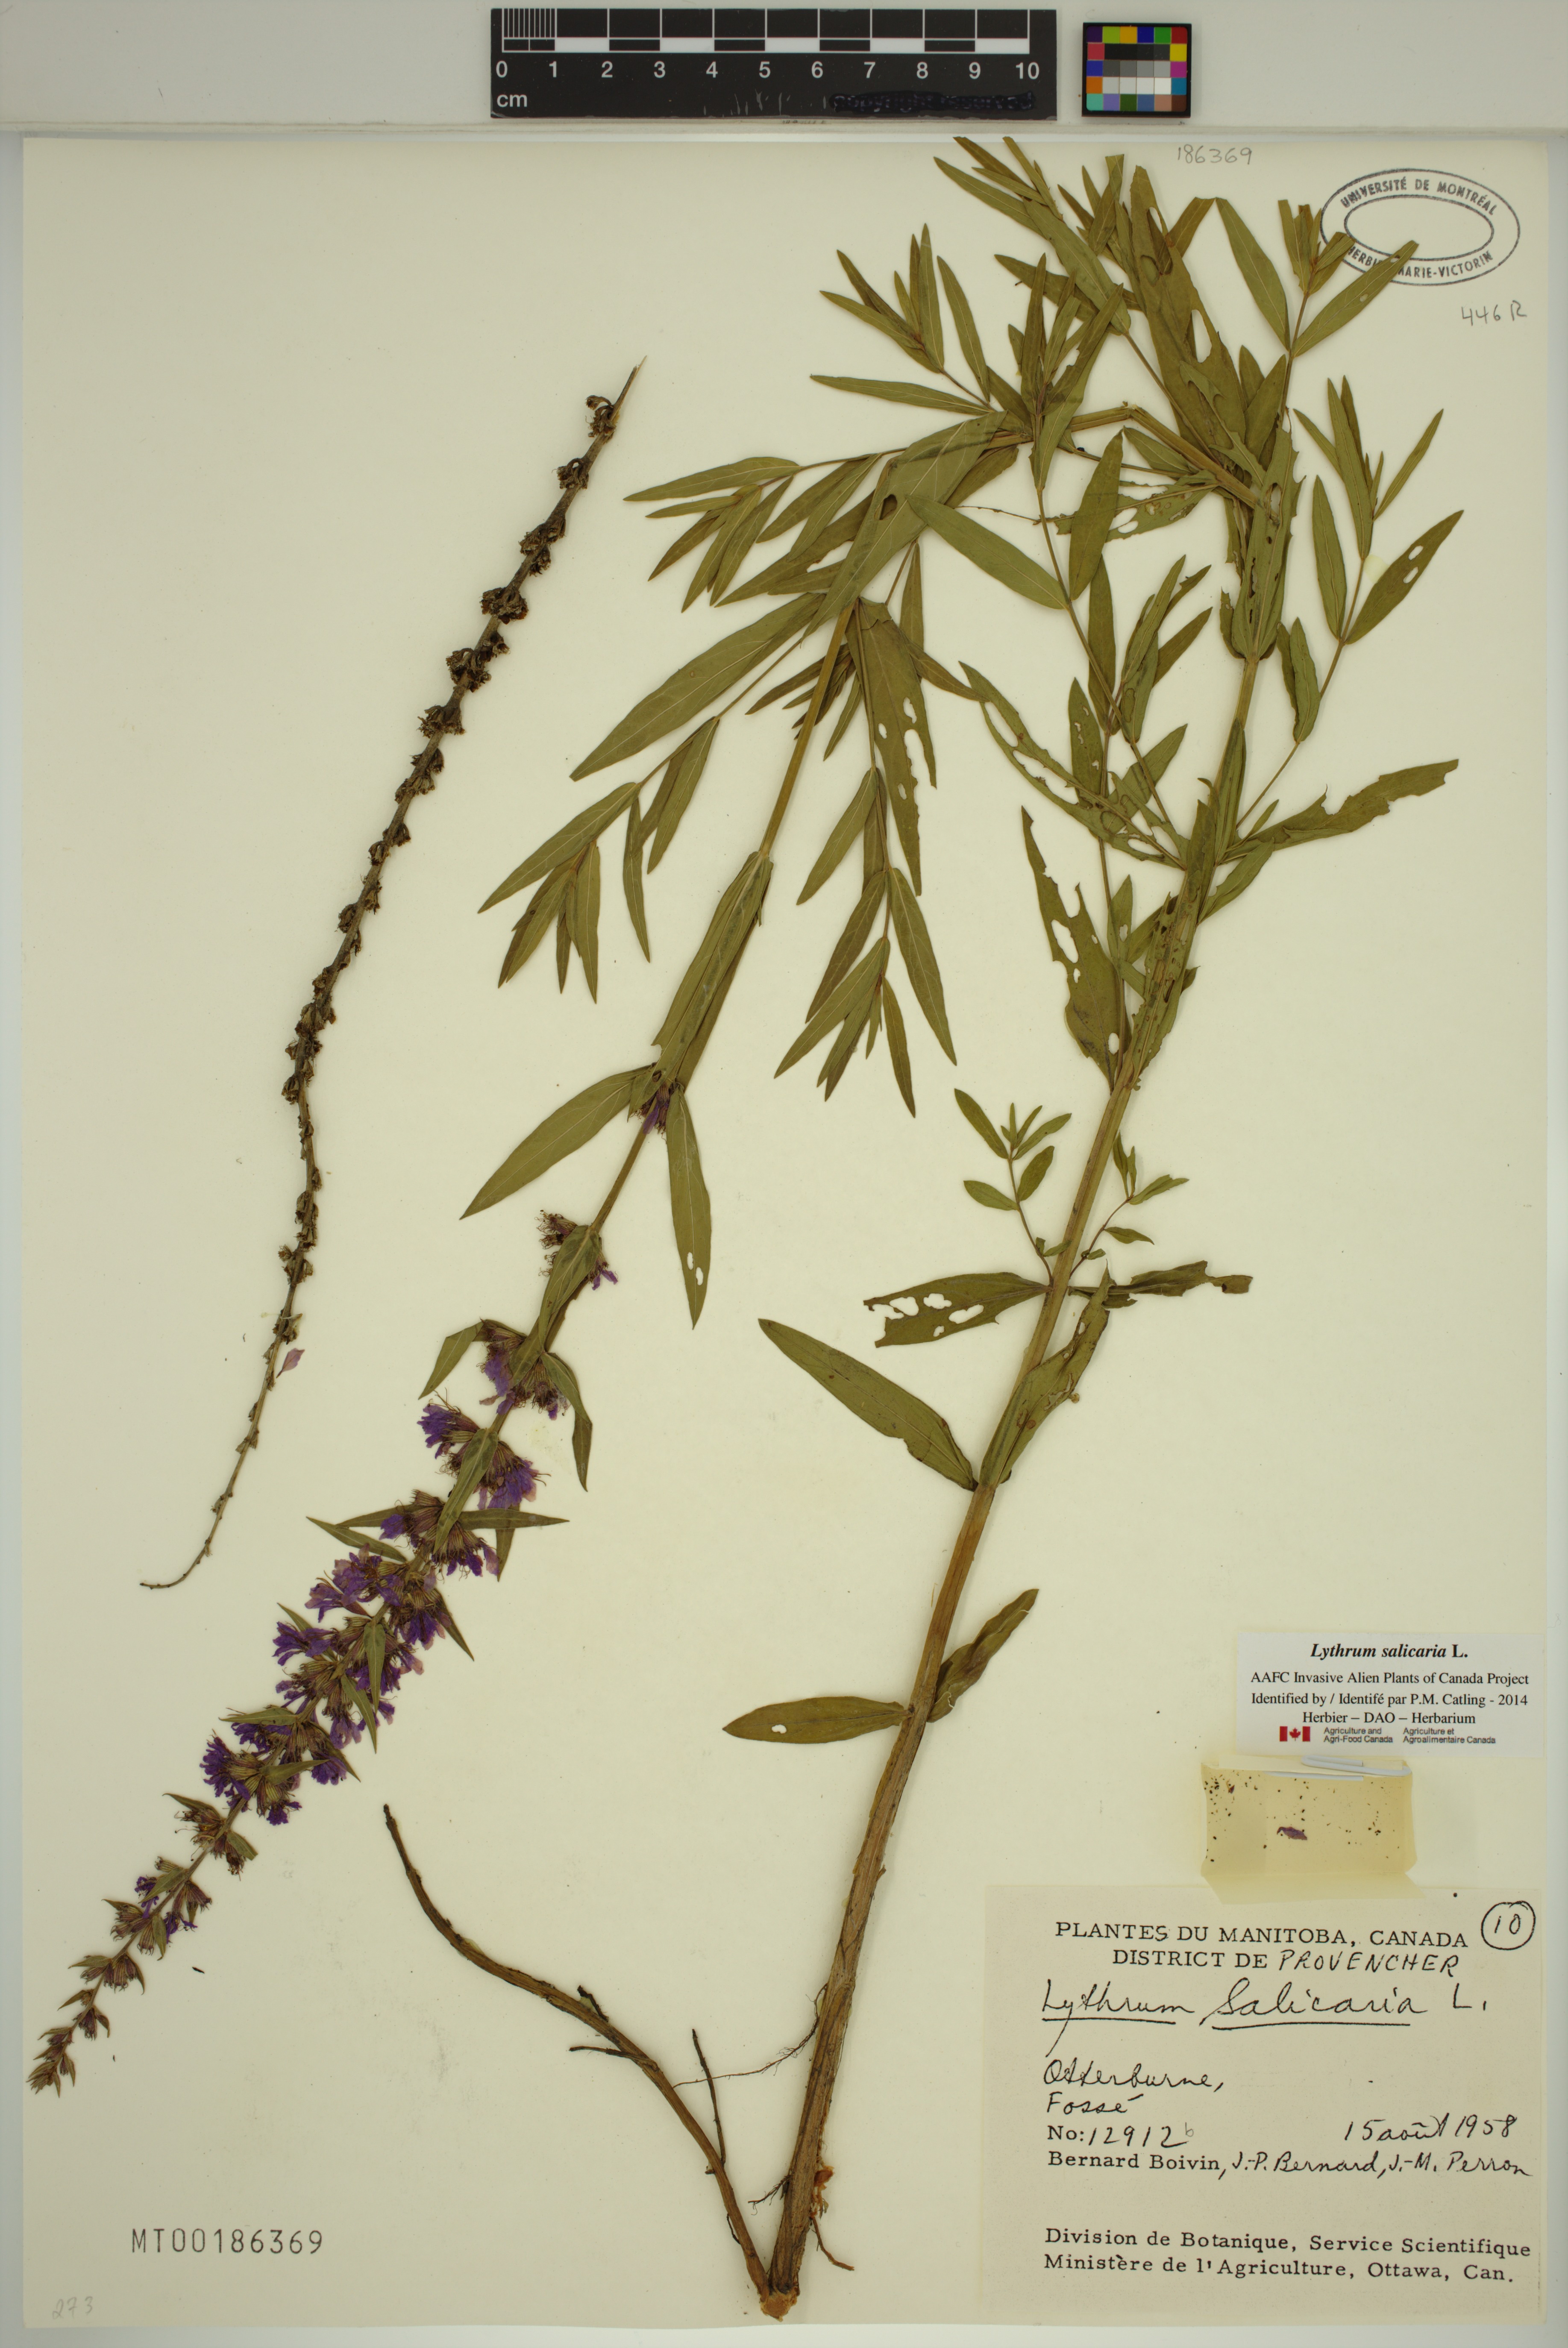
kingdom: Plantae
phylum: Tracheophyta
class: Magnoliopsida
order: Myrtales
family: Lythraceae
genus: Lythrum
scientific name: Lythrum salicaria
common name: Purple loosestrife
